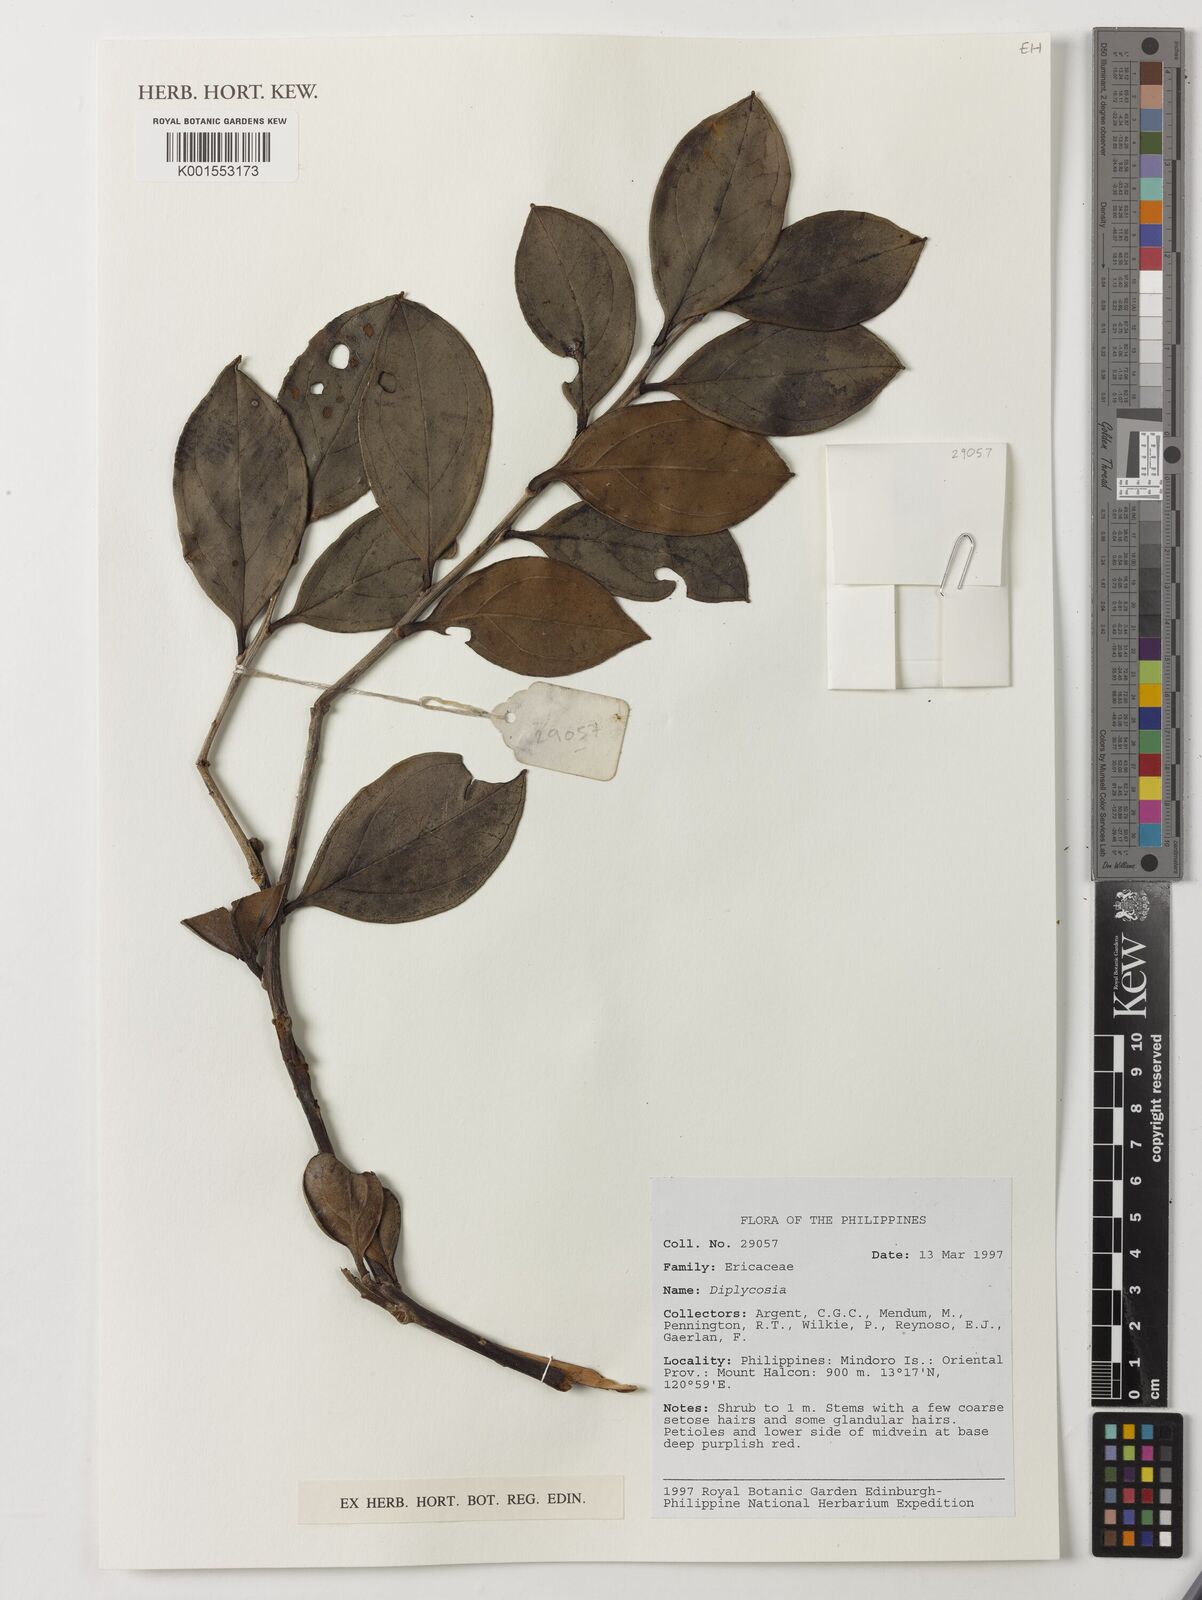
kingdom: Plantae
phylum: Tracheophyta
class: Magnoliopsida
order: Ericales
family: Ericaceae
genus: Gaultheria
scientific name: Gaultheria
